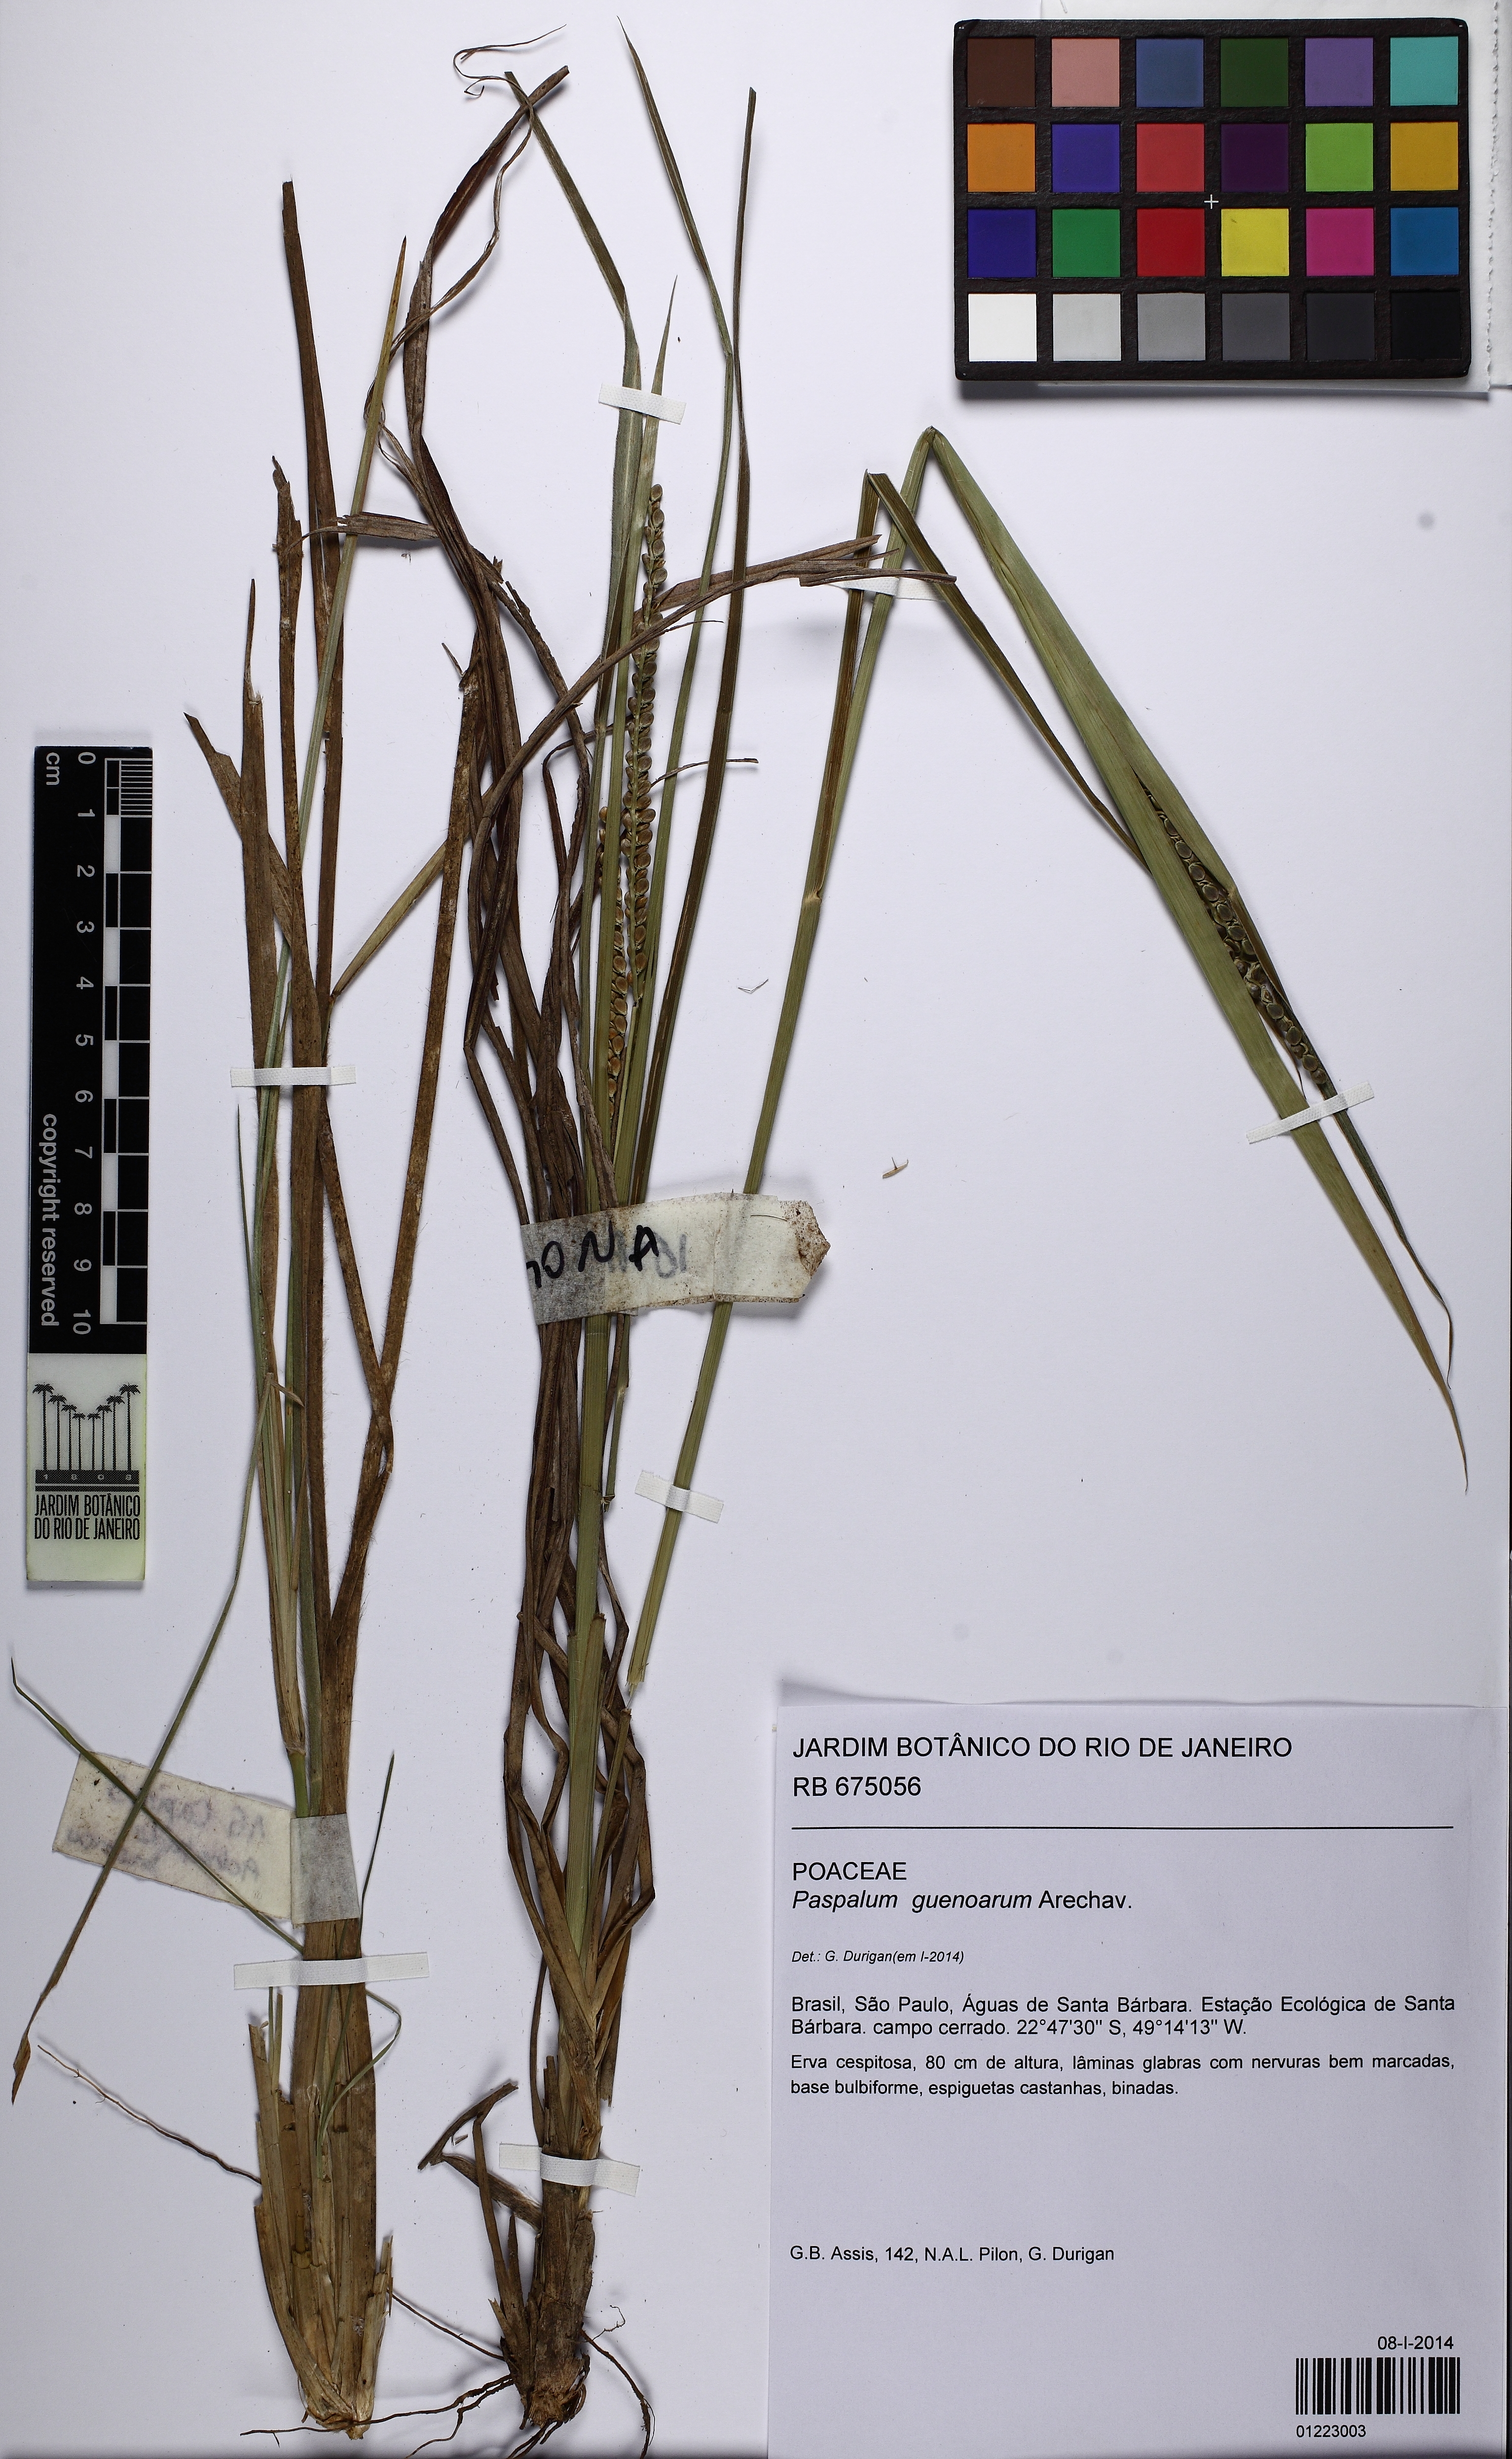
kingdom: Plantae
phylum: Tracheophyta
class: Liliopsida
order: Poales
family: Poaceae
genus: Paspalum
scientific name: Paspalum guenoarum
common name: Wintergreen paspalum
